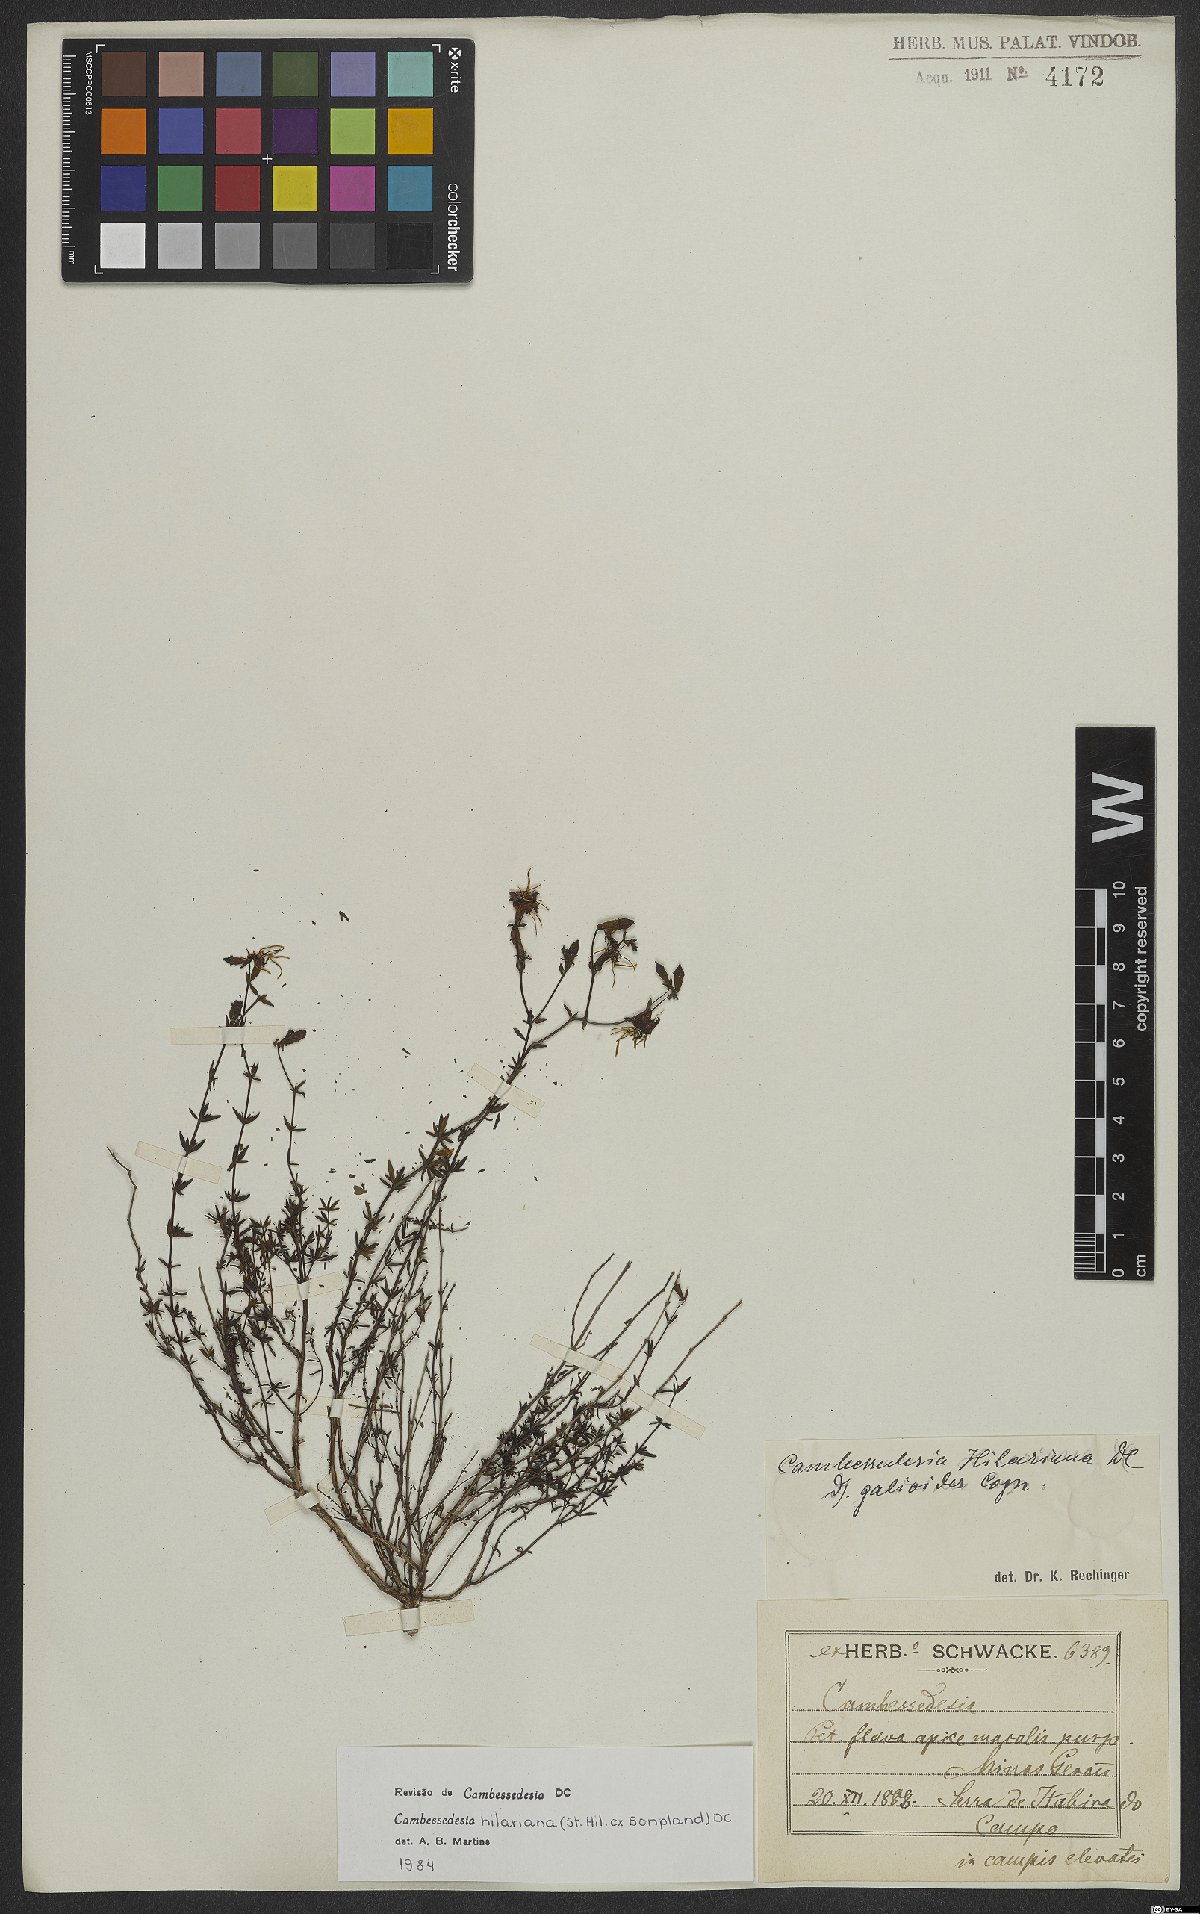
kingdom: Plantae
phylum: Tracheophyta
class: Magnoliopsida
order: Myrtales
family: Melastomataceae
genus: Cambessedesia
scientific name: Cambessedesia hilariana
